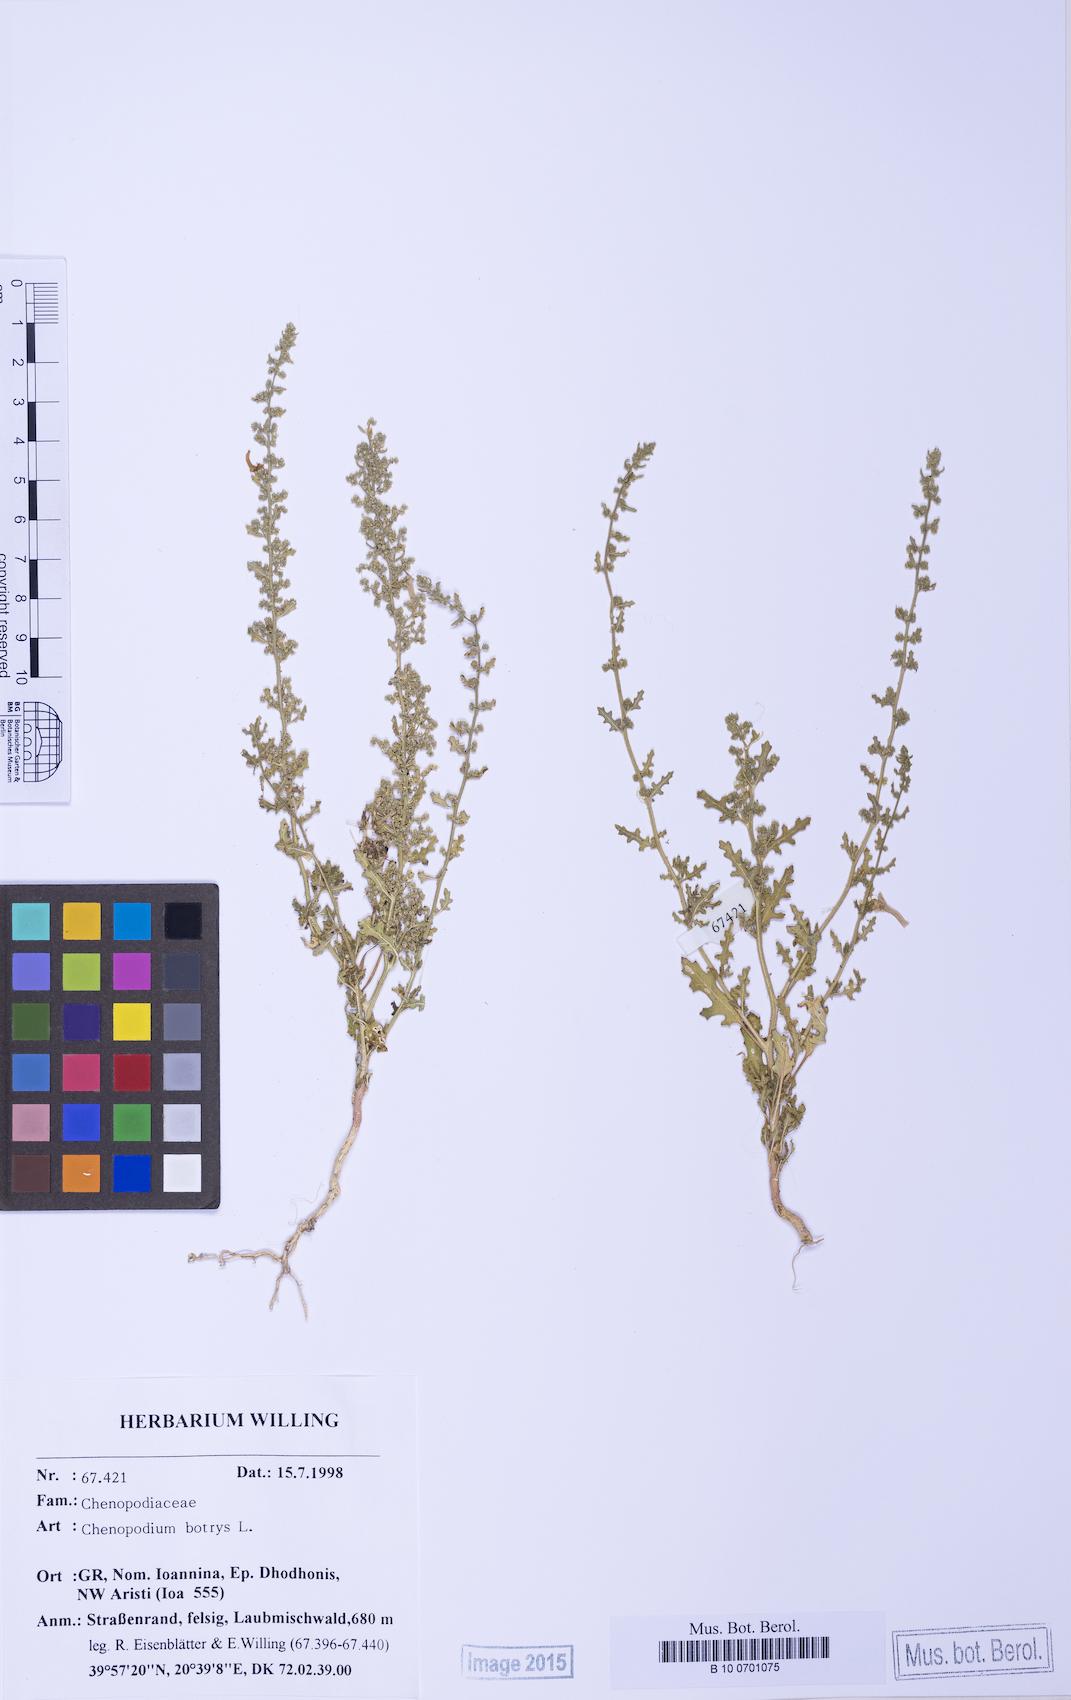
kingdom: Plantae
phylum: Tracheophyta
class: Magnoliopsida
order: Caryophyllales
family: Amaranthaceae
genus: Dysphania
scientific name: Dysphania botrys
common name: Feather-geranium
